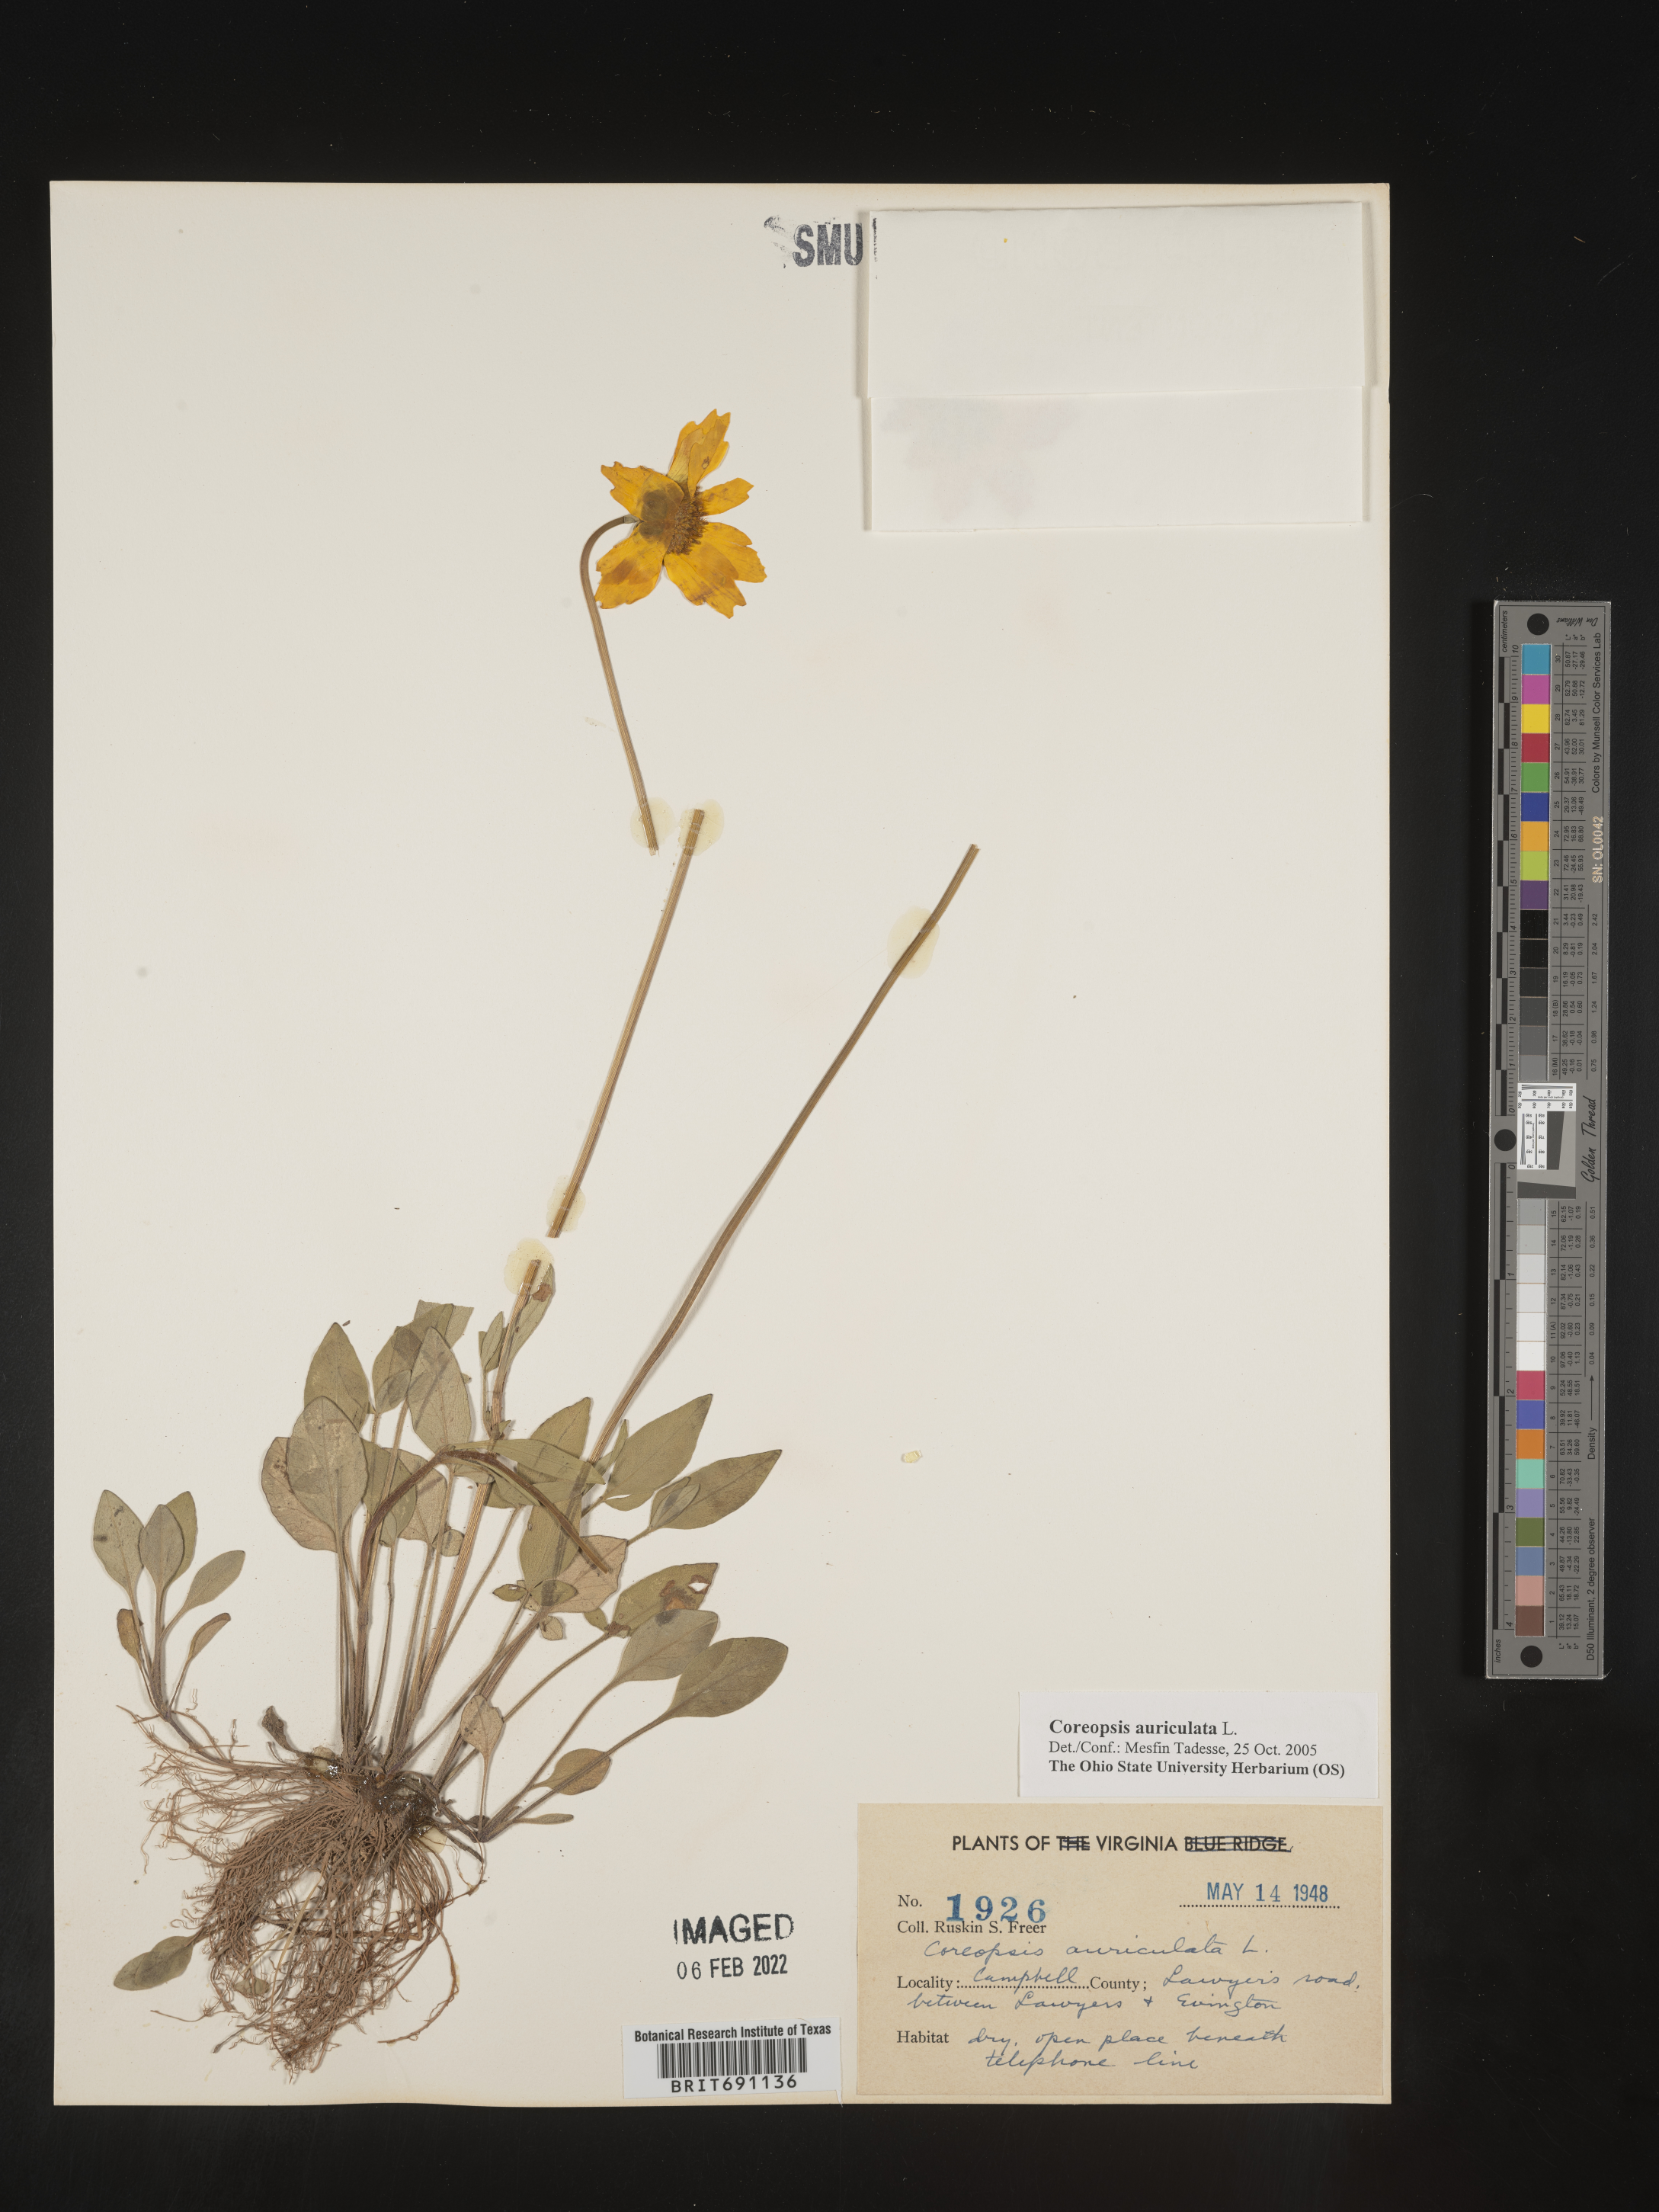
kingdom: Plantae
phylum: Tracheophyta
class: Magnoliopsida
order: Asterales
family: Asteraceae
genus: Coreopsis
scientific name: Coreopsis auriculata
